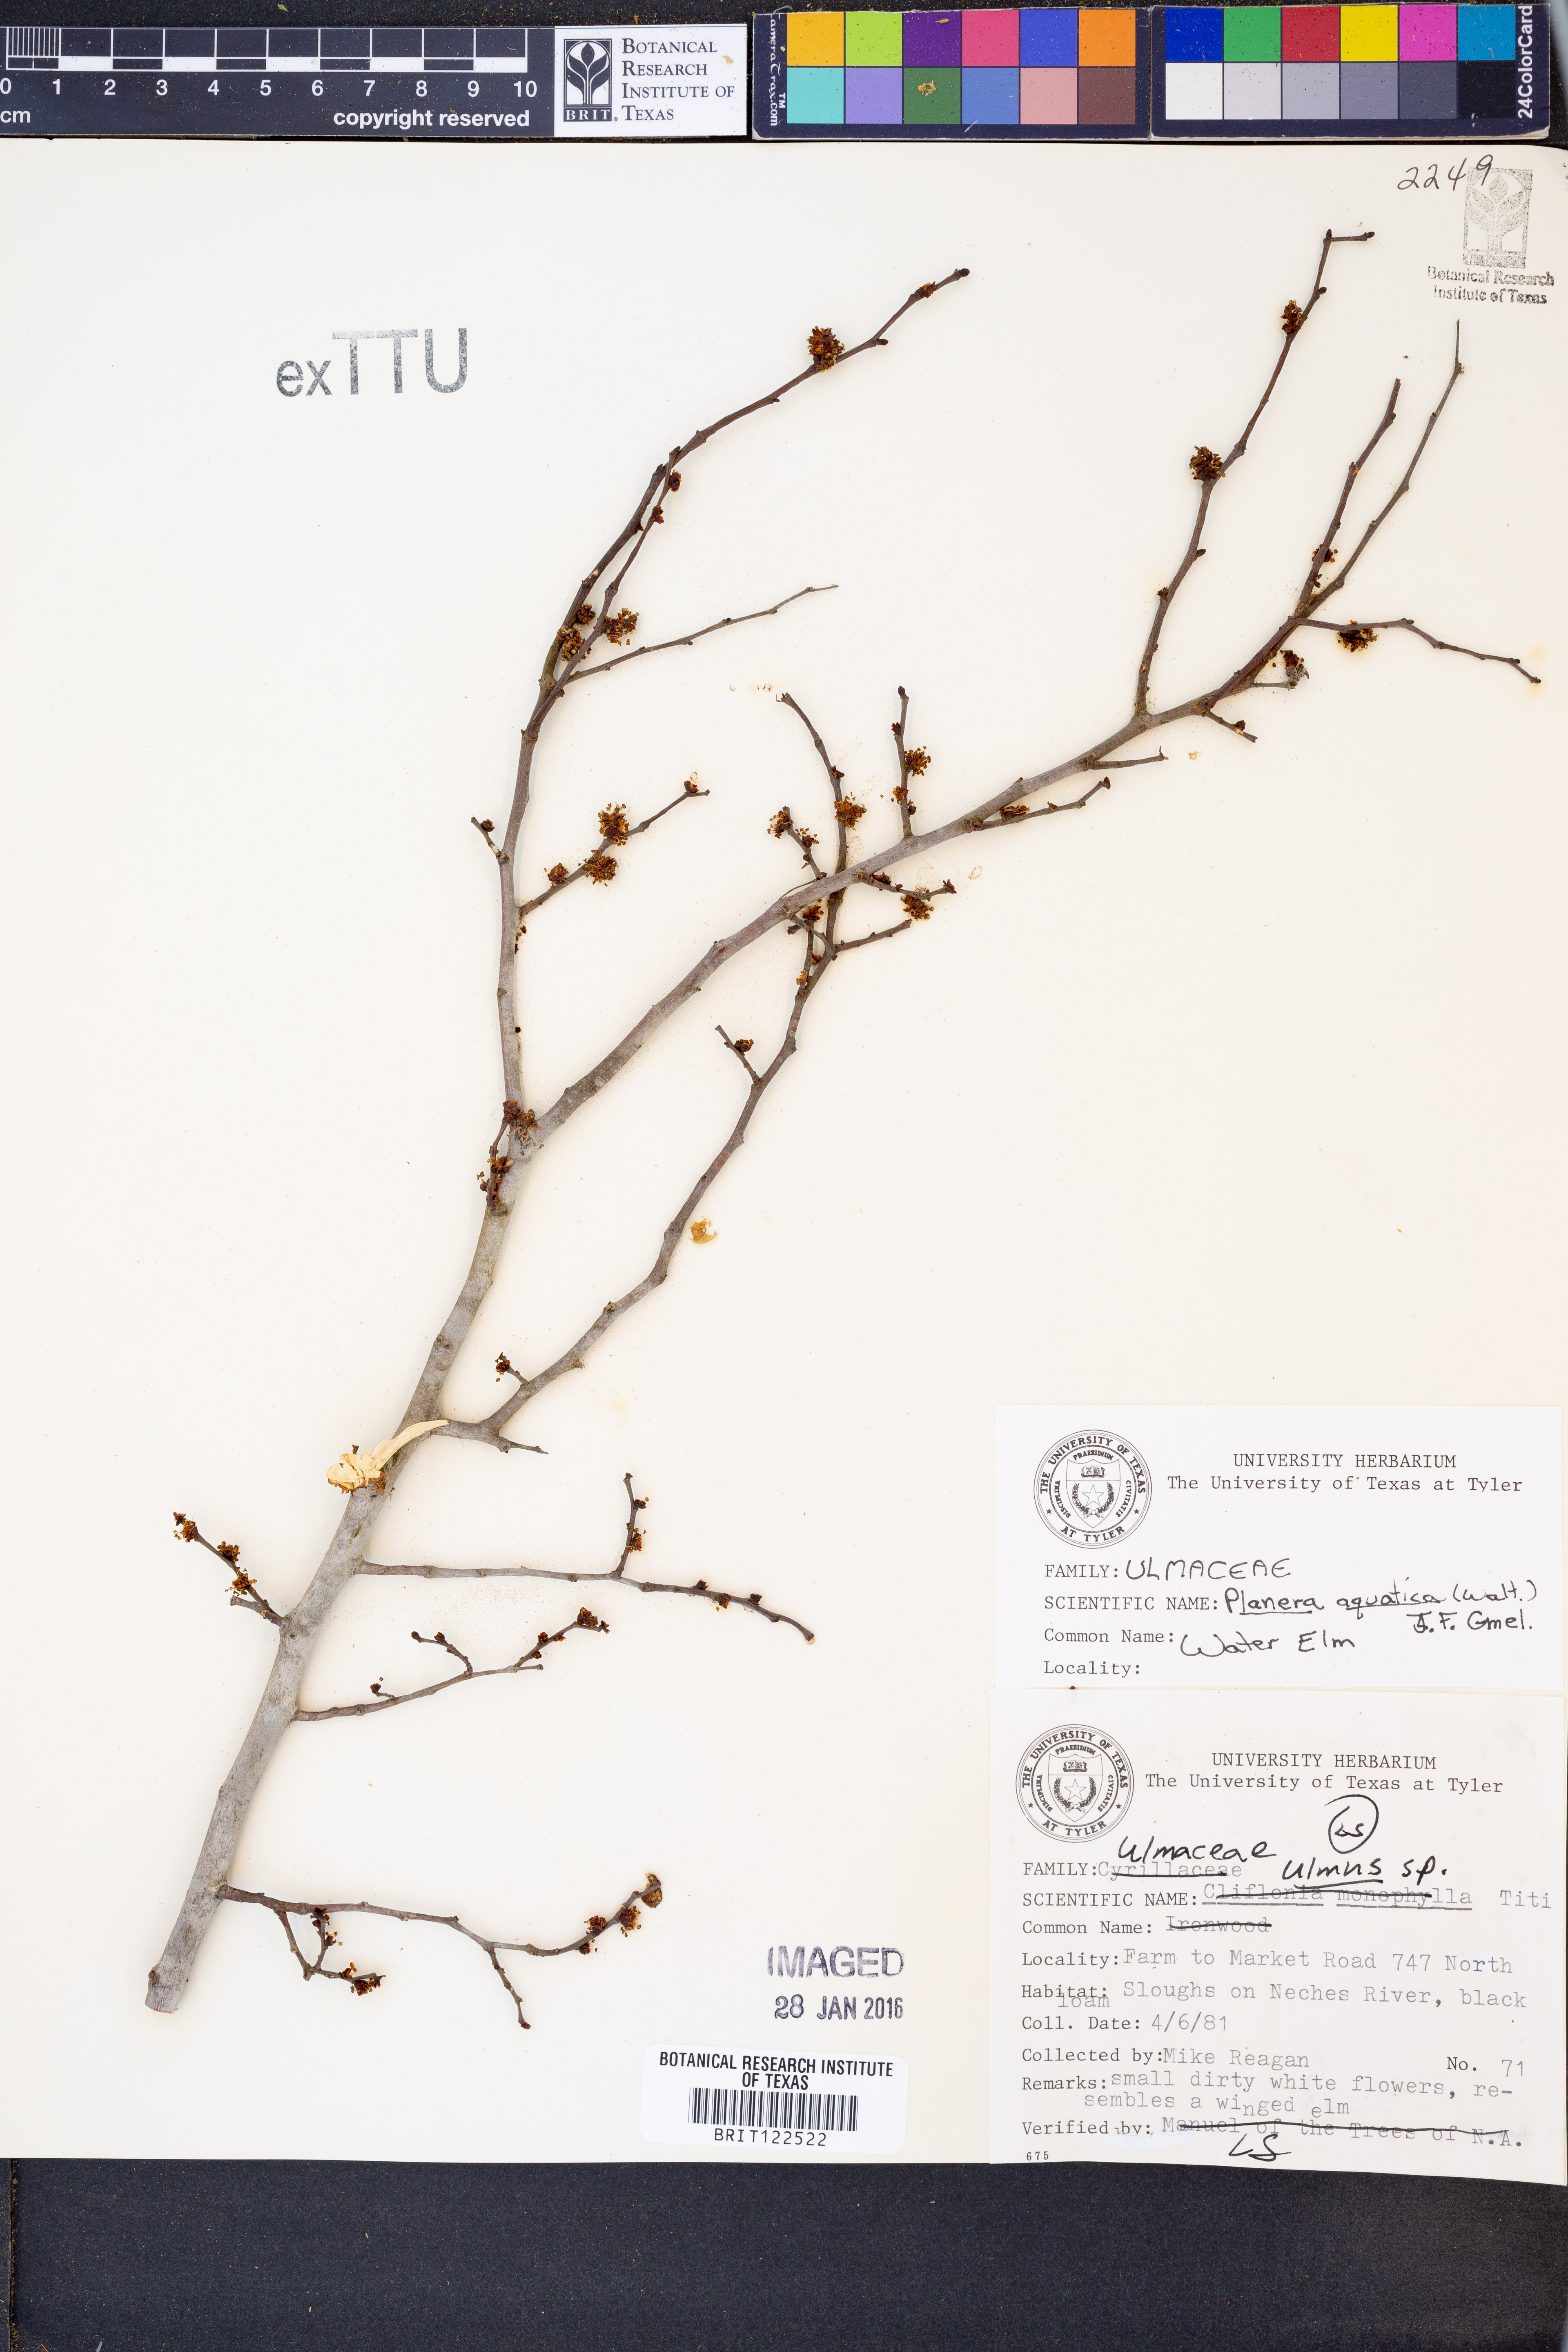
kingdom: Plantae
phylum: Tracheophyta
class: Magnoliopsida
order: Rosales
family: Ulmaceae
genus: Planera
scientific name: Planera aquatica
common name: Water-elm
